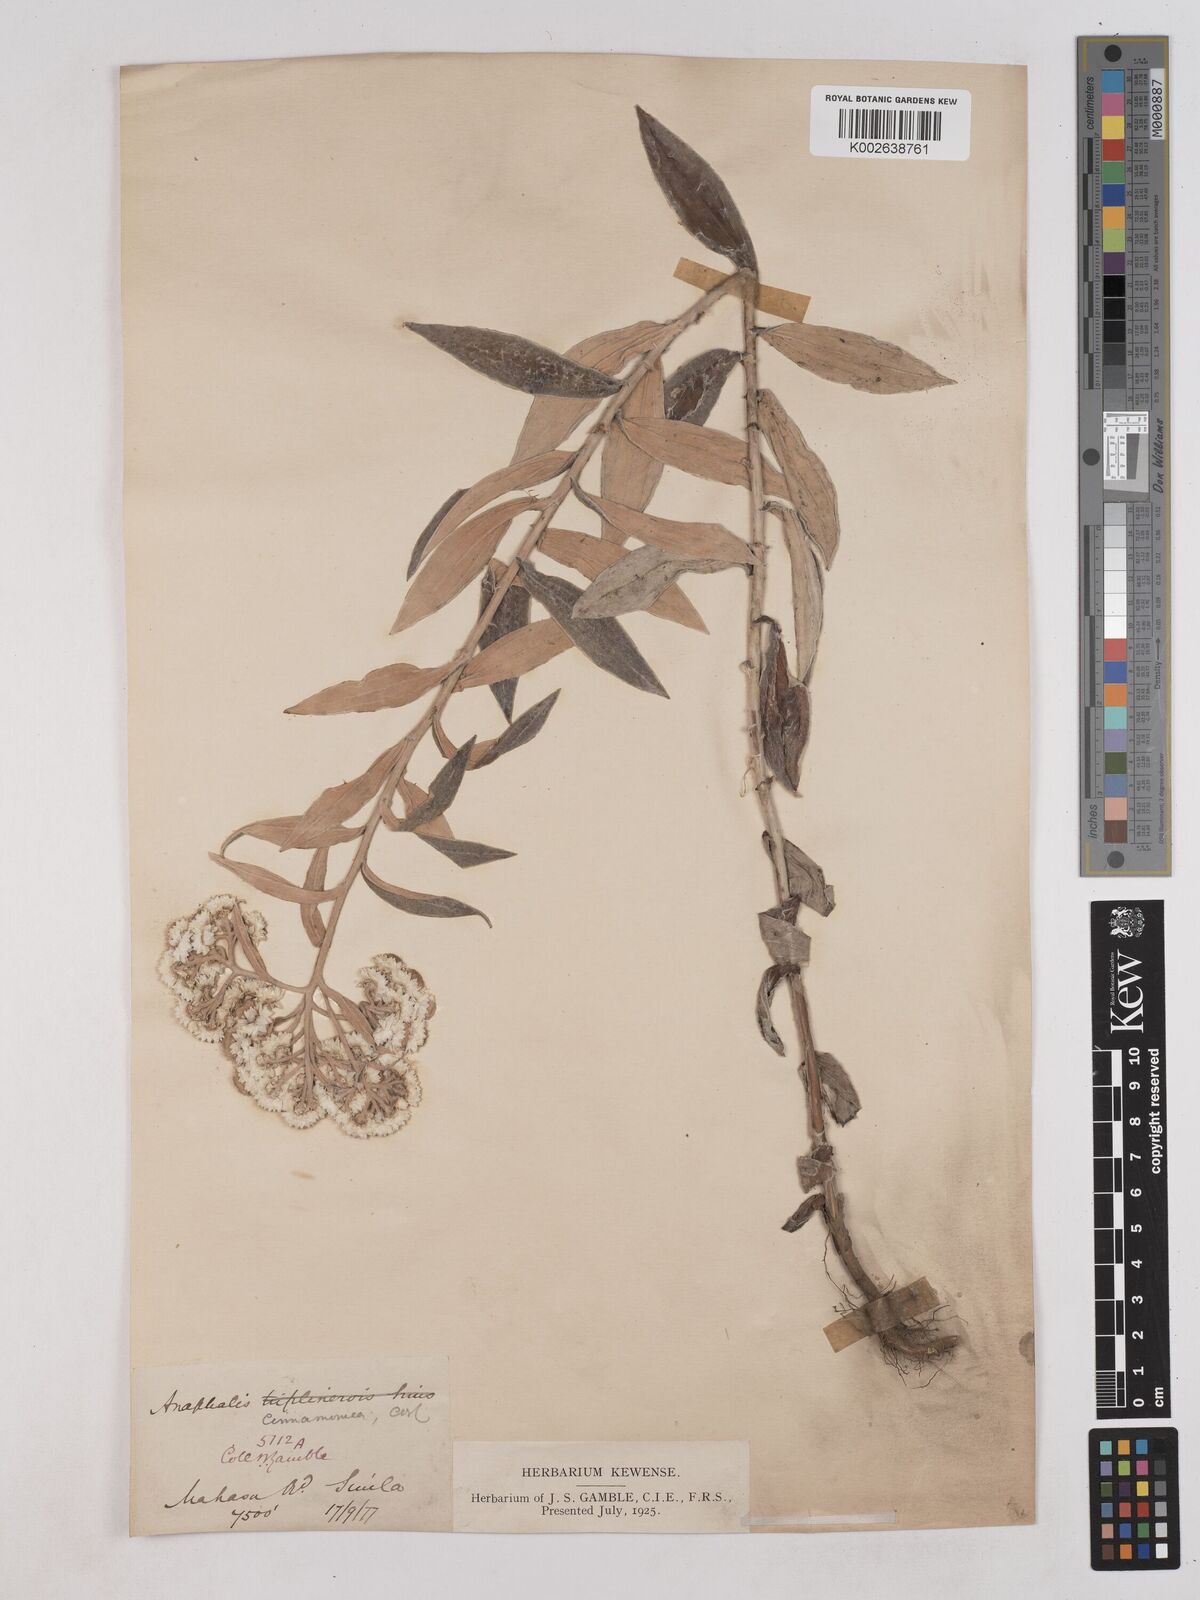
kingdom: Plantae
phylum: Tracheophyta
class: Magnoliopsida
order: Asterales
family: Asteraceae
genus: Anaphalis
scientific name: Anaphalis marcescens
